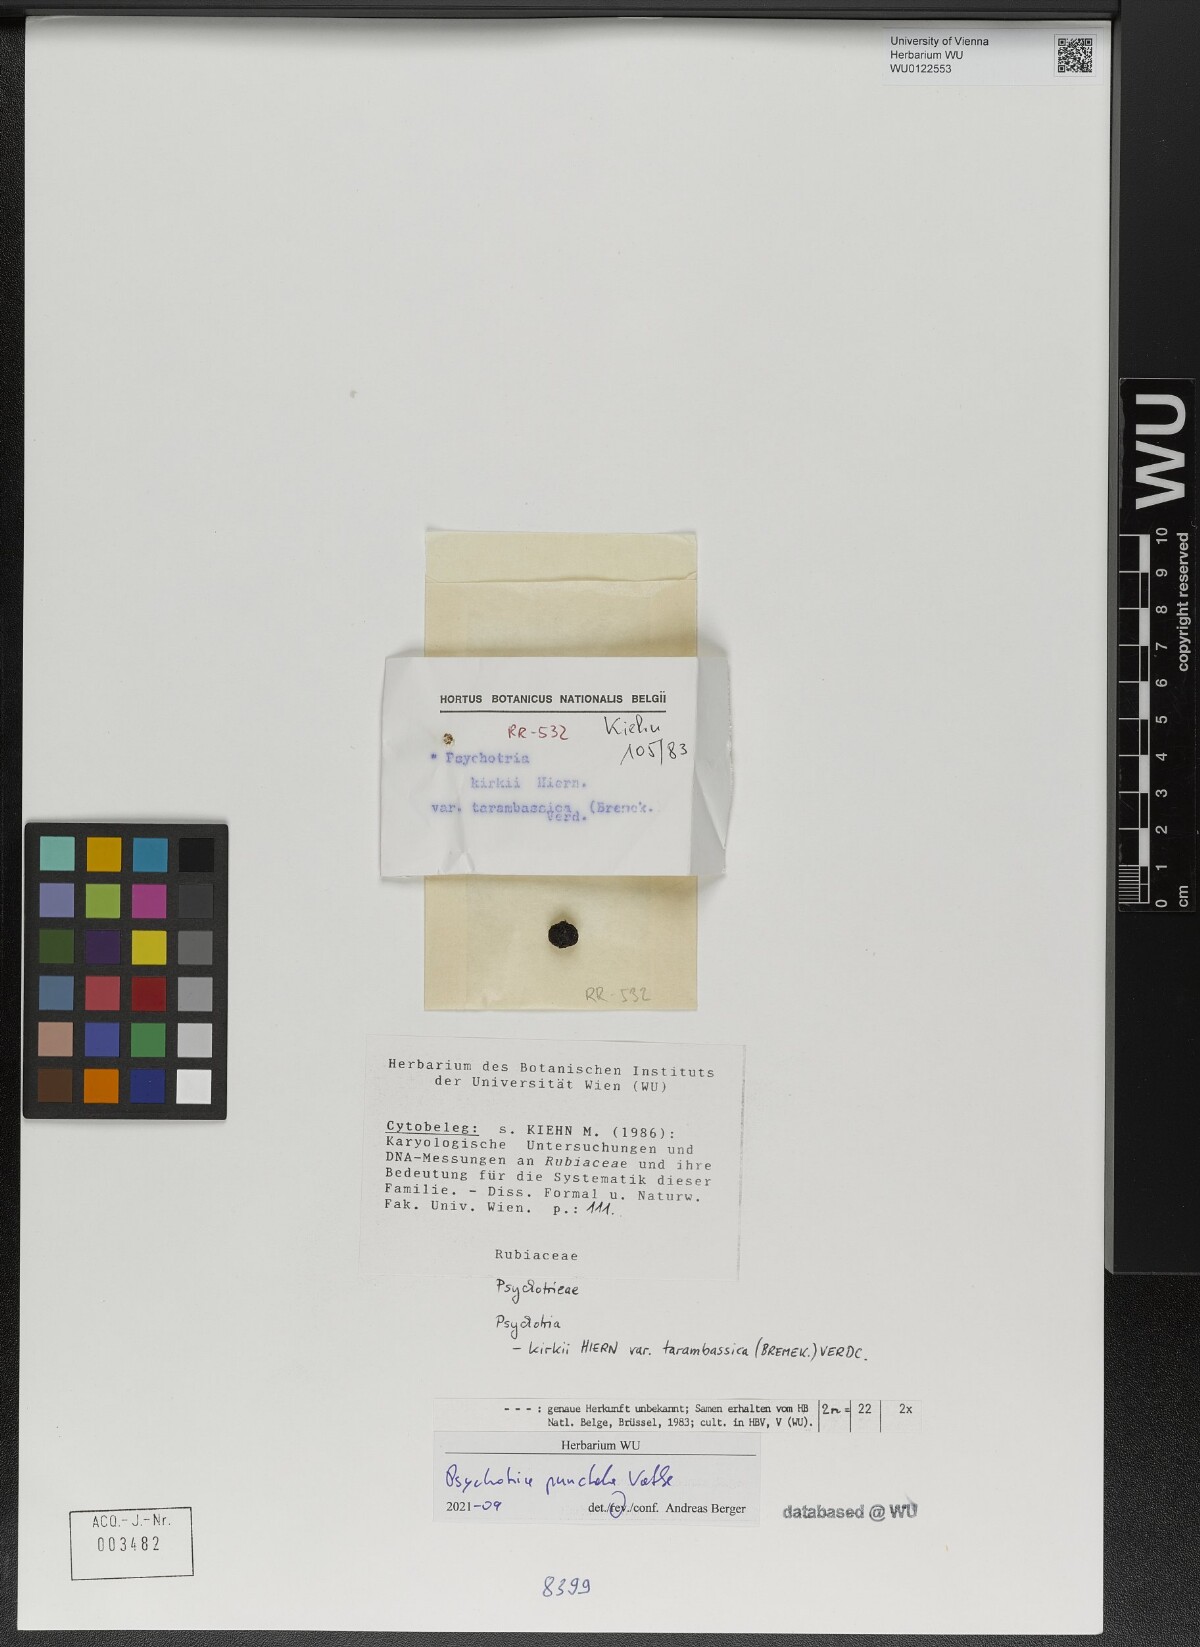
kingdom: Plantae
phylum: Tracheophyta
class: Magnoliopsida
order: Gentianales
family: Rubiaceae
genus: Psychotria
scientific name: Psychotria punctata
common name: Dotted wild coffee
